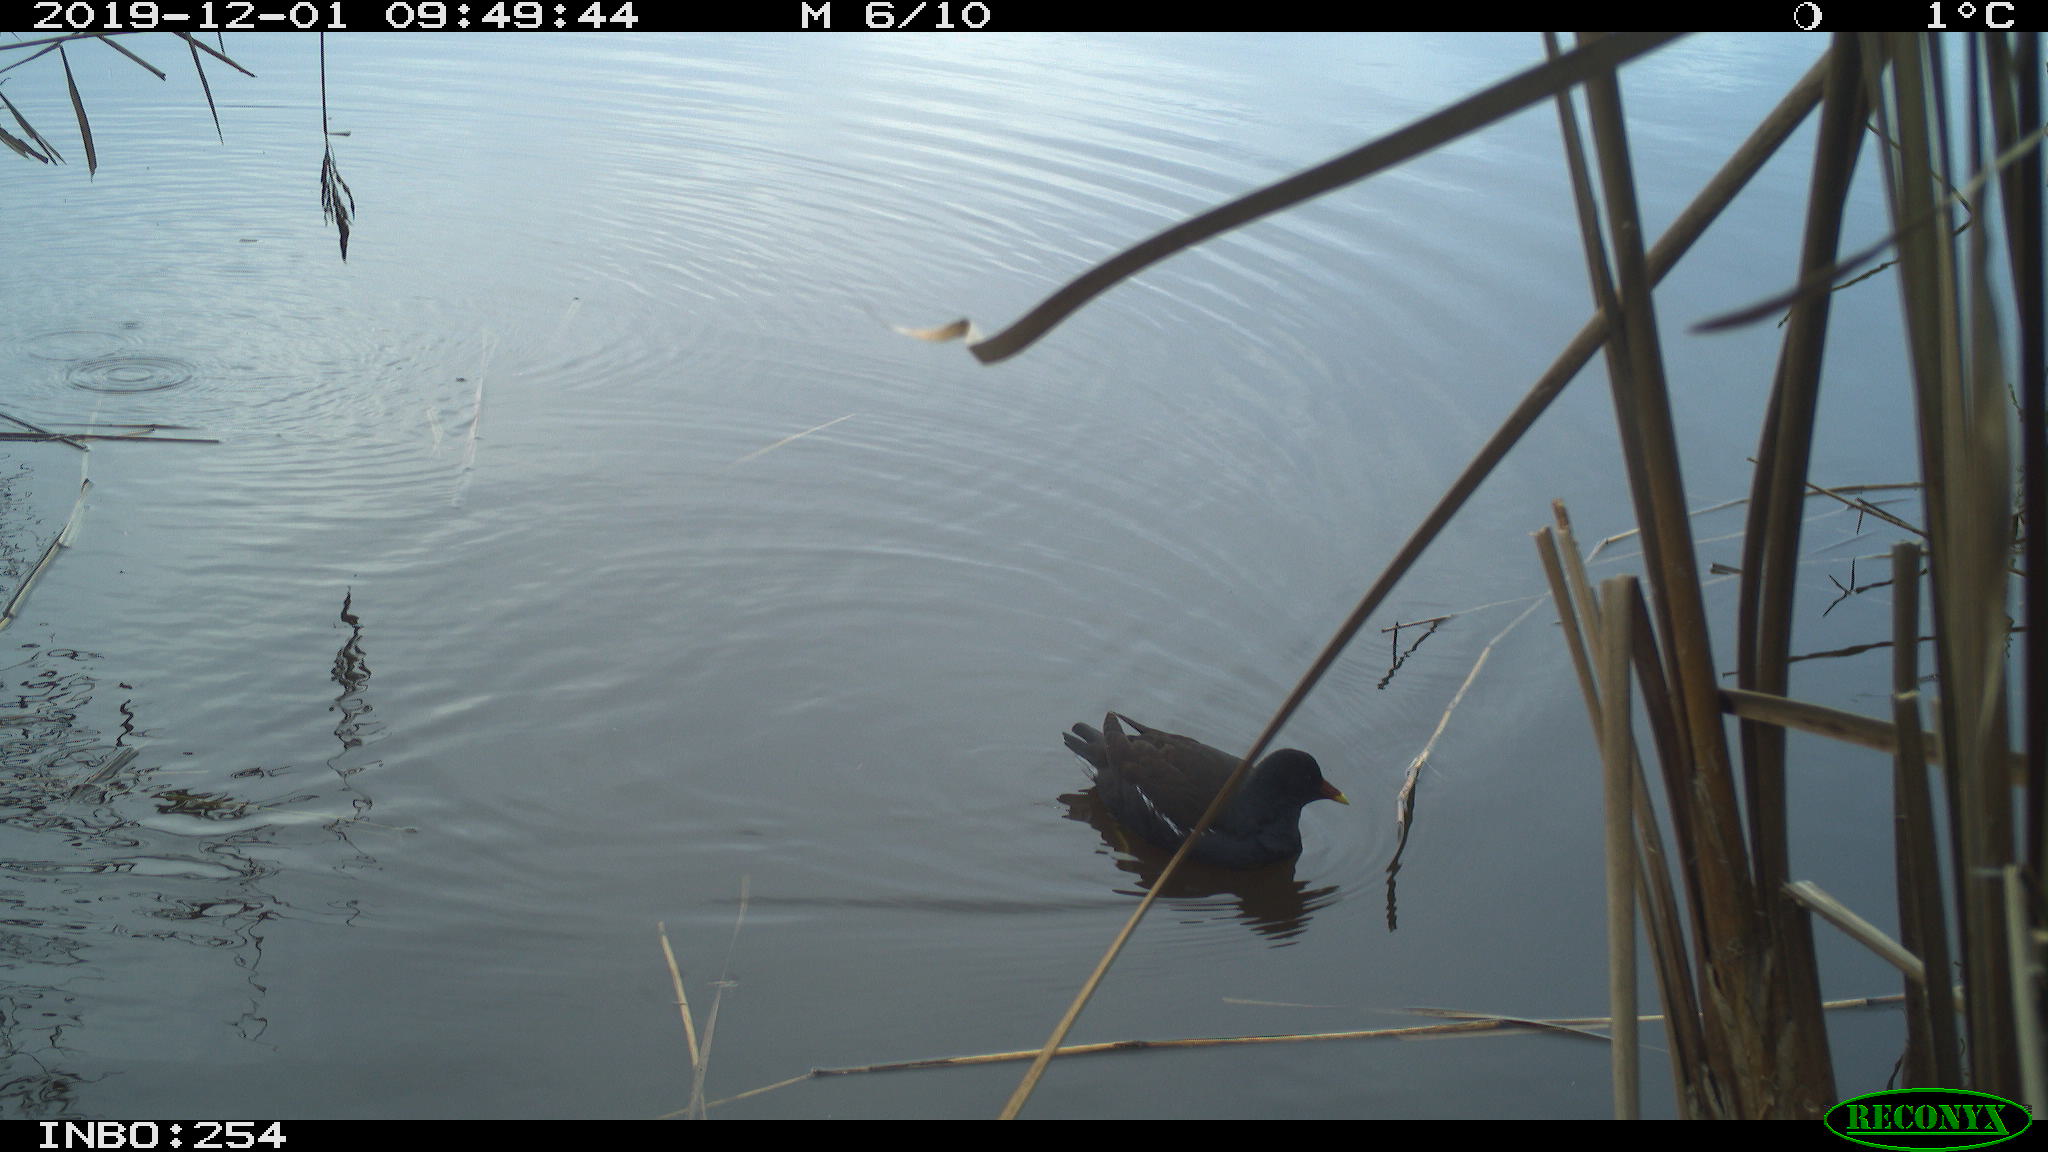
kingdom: Animalia
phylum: Chordata
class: Aves
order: Gruiformes
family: Rallidae
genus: Gallinula
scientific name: Gallinula chloropus
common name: Common moorhen
